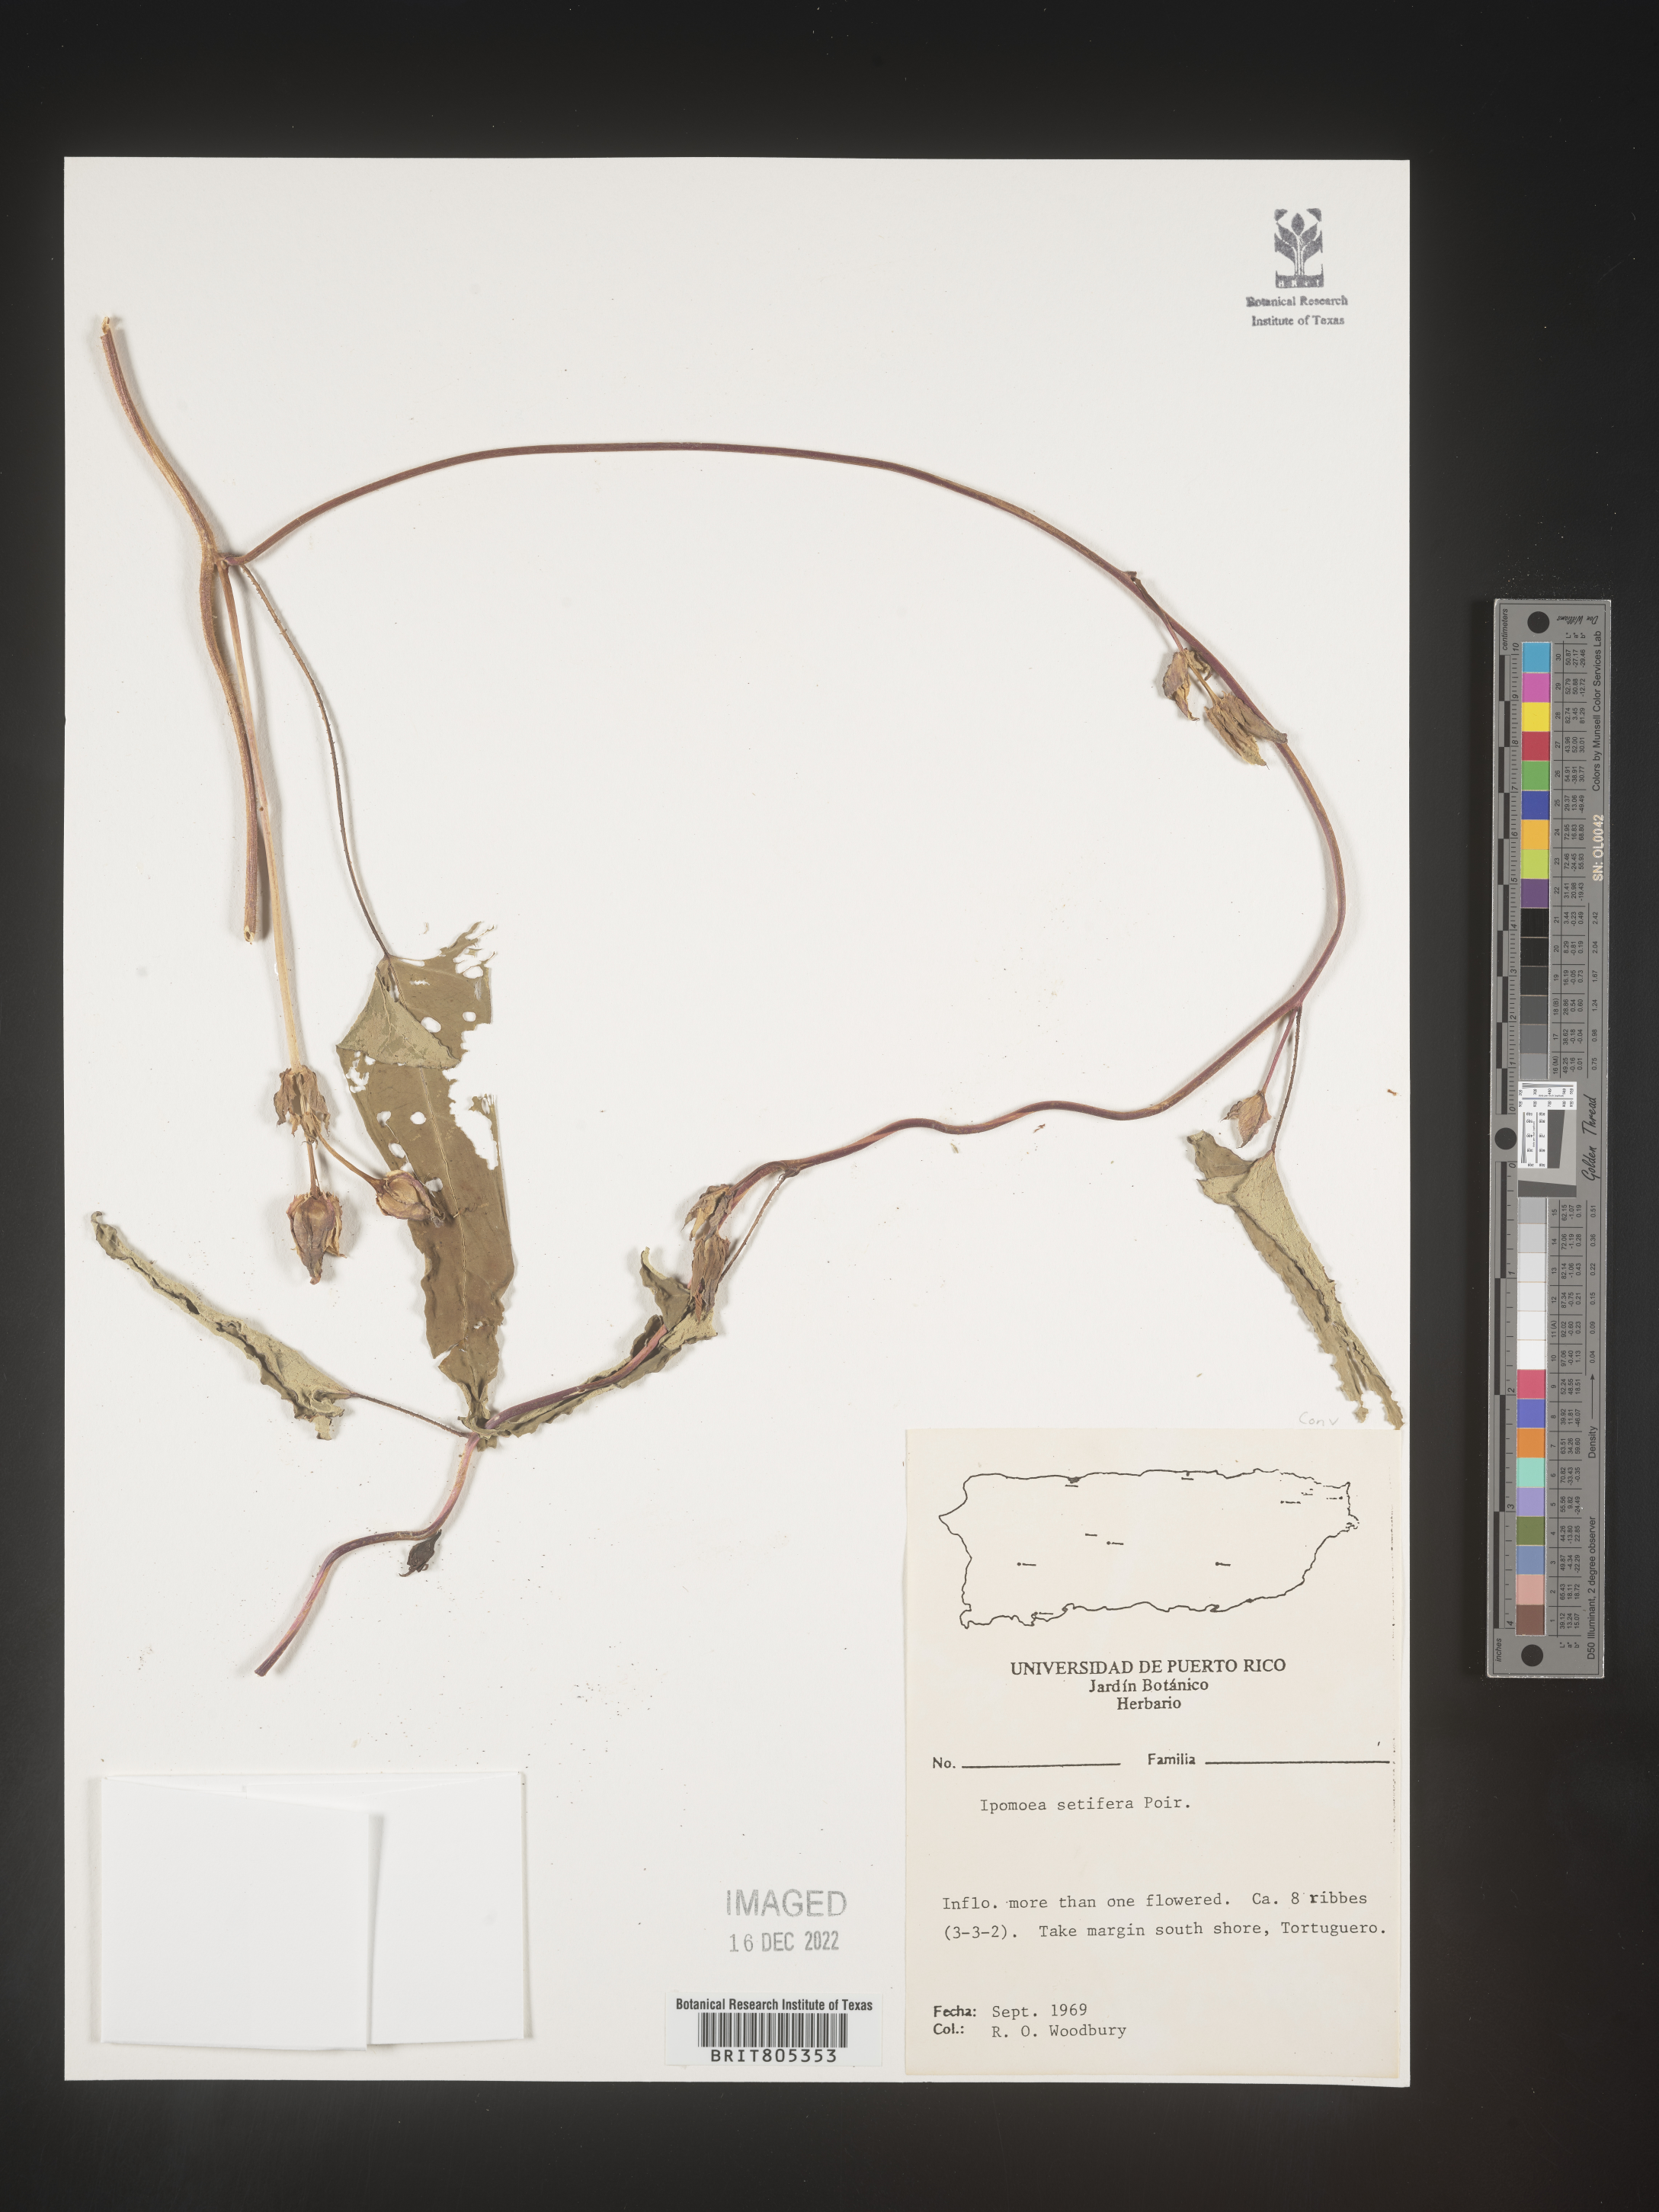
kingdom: Plantae
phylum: Tracheophyta
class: Magnoliopsida
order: Solanales
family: Convolvulaceae
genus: Ipomoea
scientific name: Ipomoea
